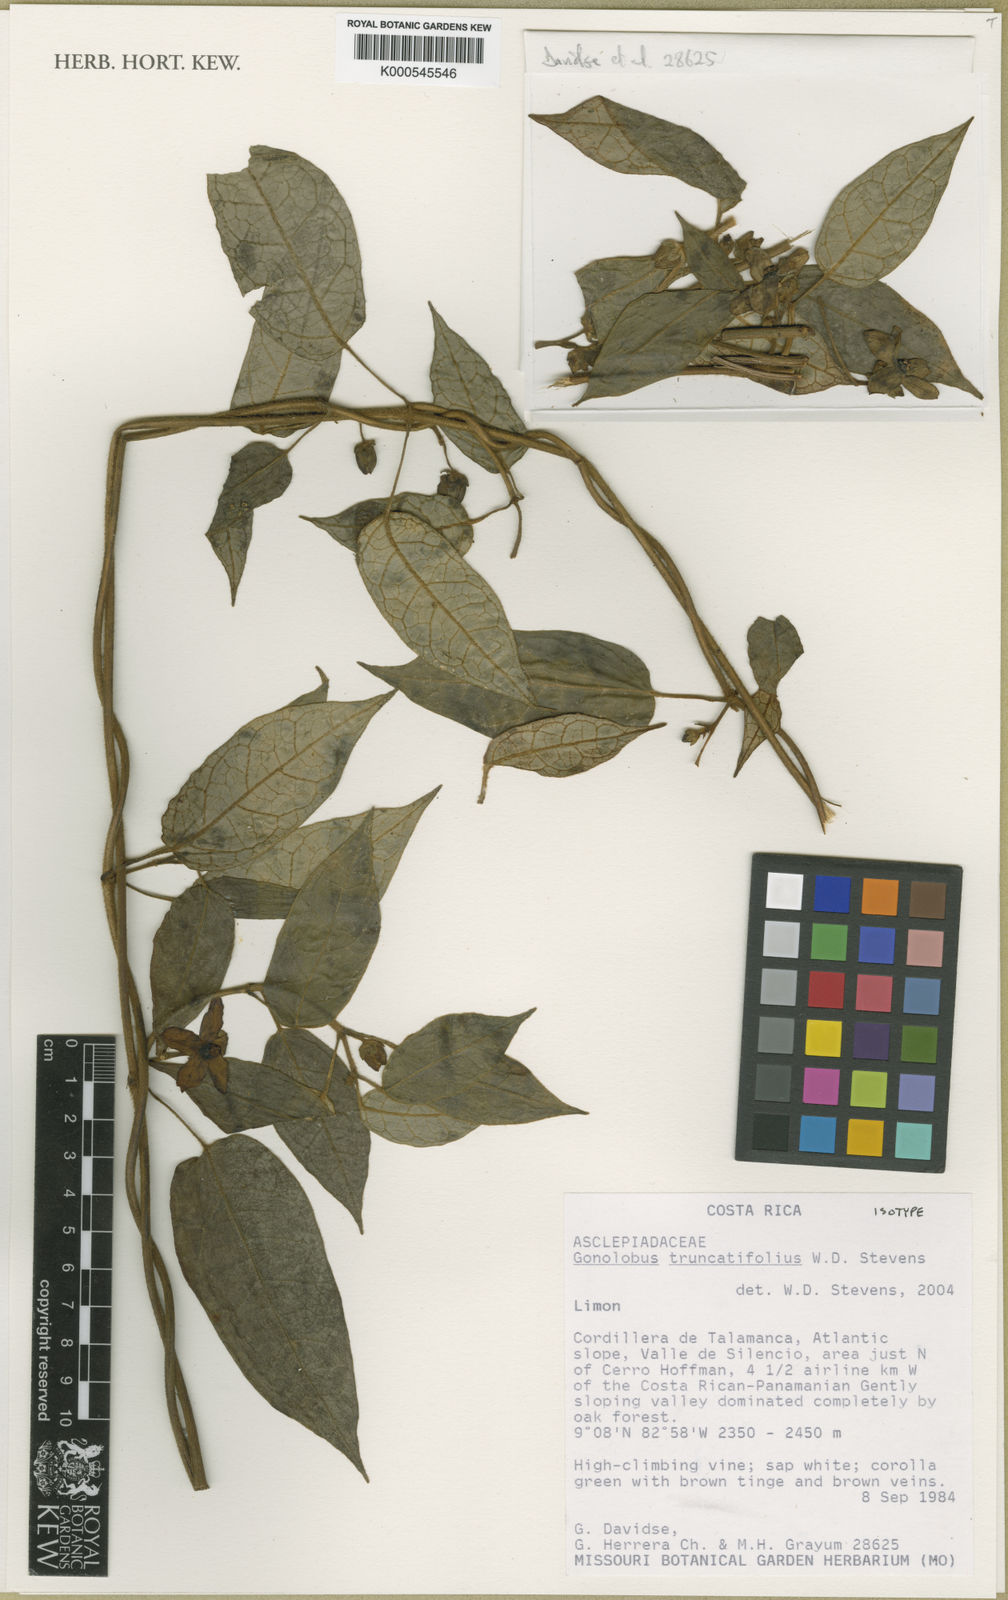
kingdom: Plantae
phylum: Tracheophyta
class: Magnoliopsida
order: Gentianales
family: Apocynaceae
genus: Gonolobus
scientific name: Gonolobus truncatifolius
